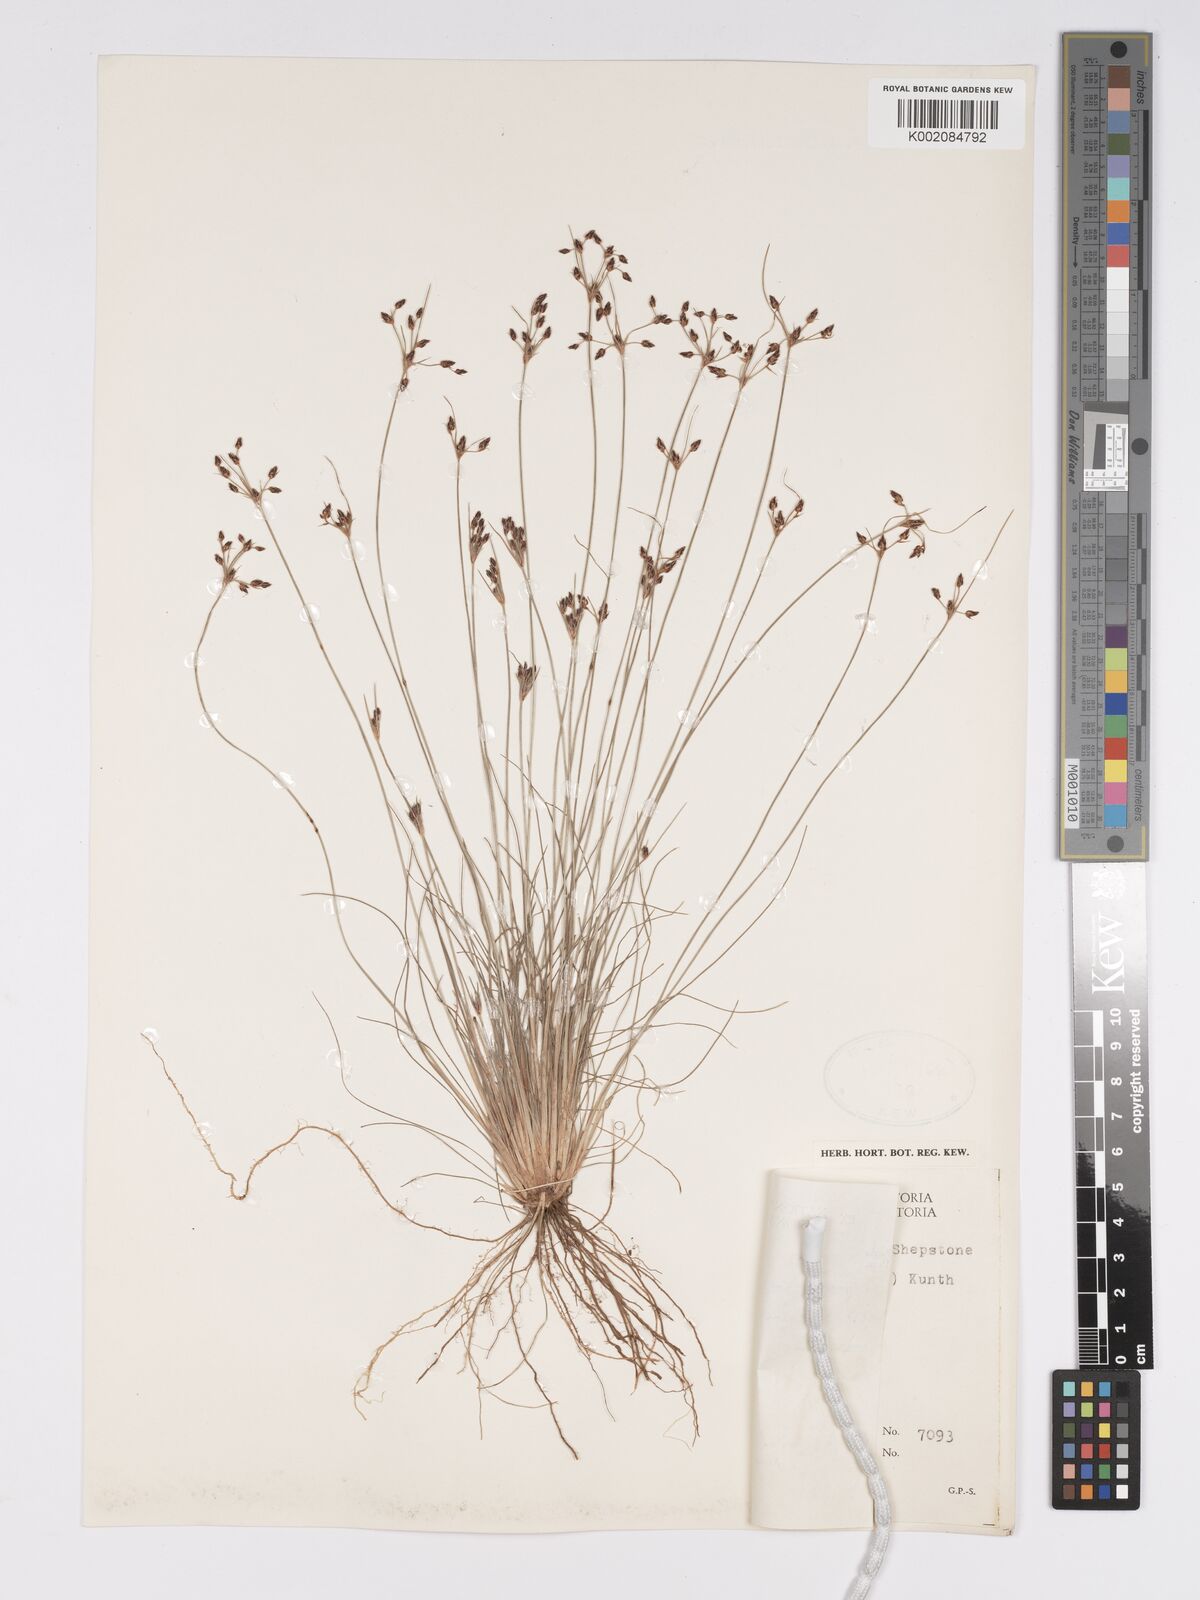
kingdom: Plantae
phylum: Tracheophyta
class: Liliopsida
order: Poales
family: Cyperaceae
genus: Bulbostylis
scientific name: Bulbostylis
